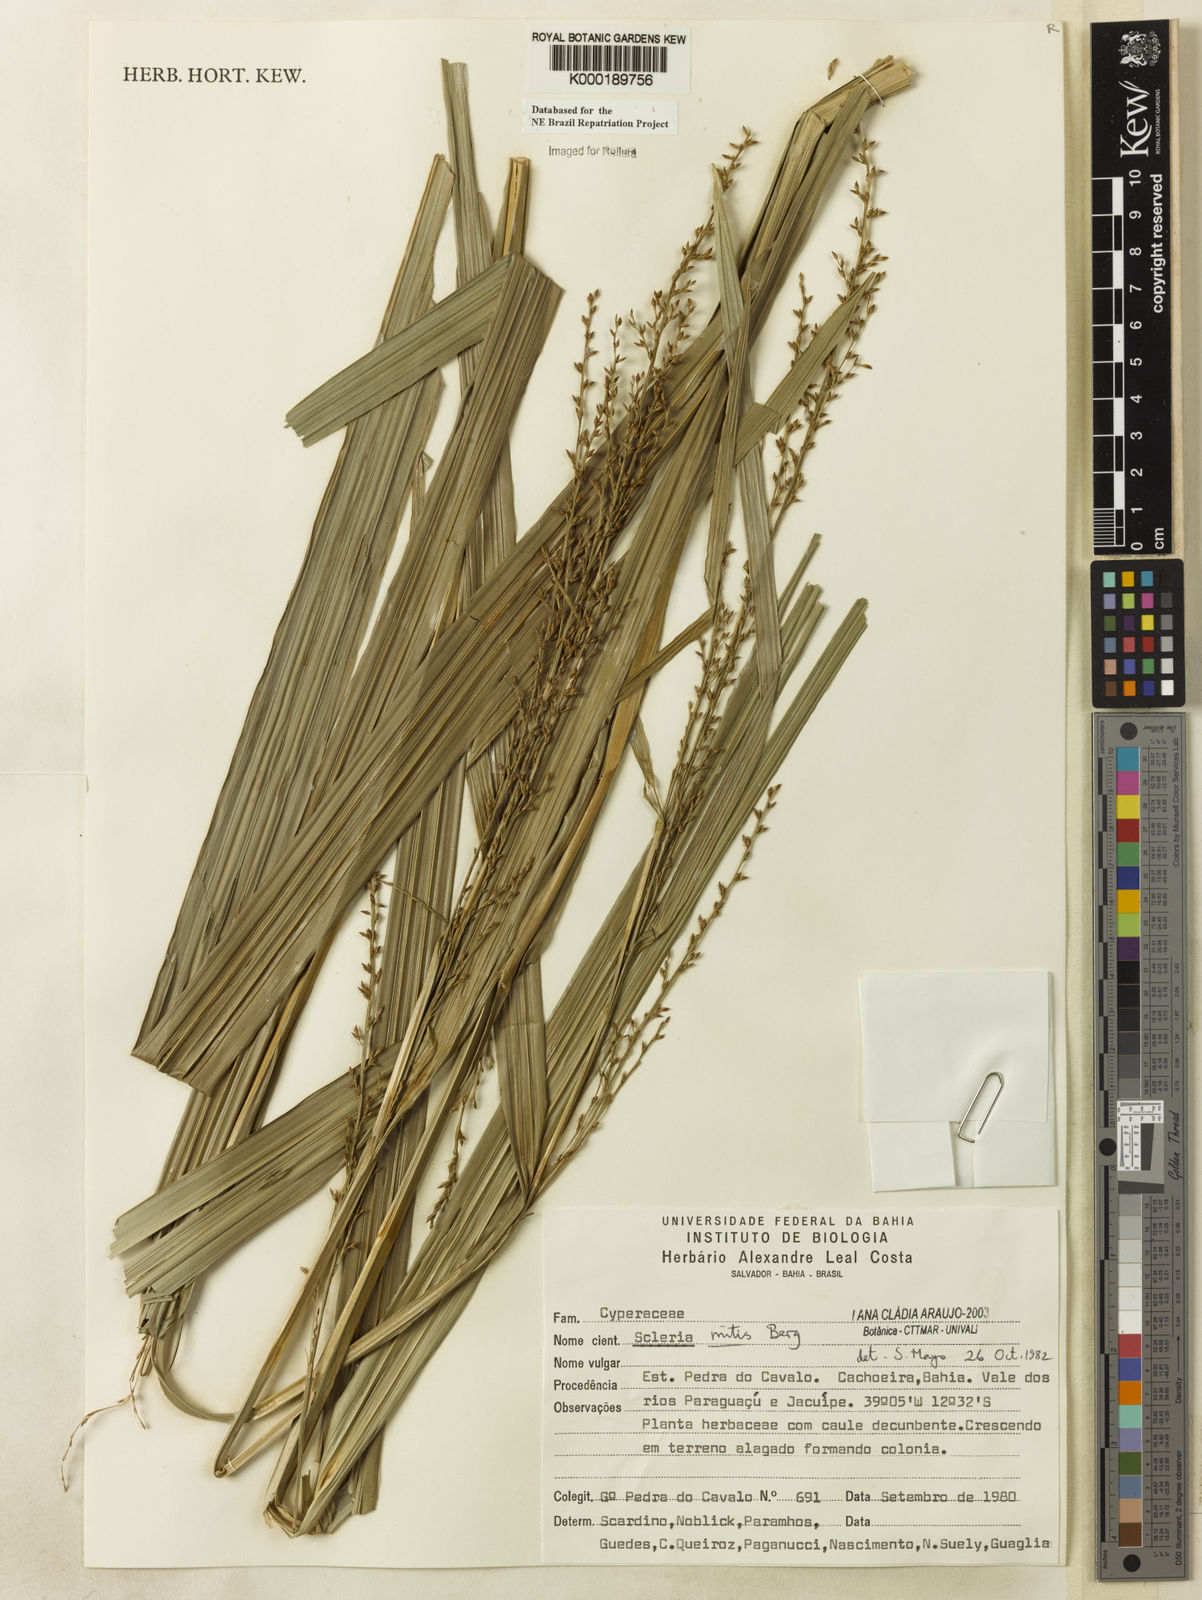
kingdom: Plantae
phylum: Tracheophyta
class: Liliopsida
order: Poales
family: Cyperaceae
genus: Scleria
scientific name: Scleria mitis
